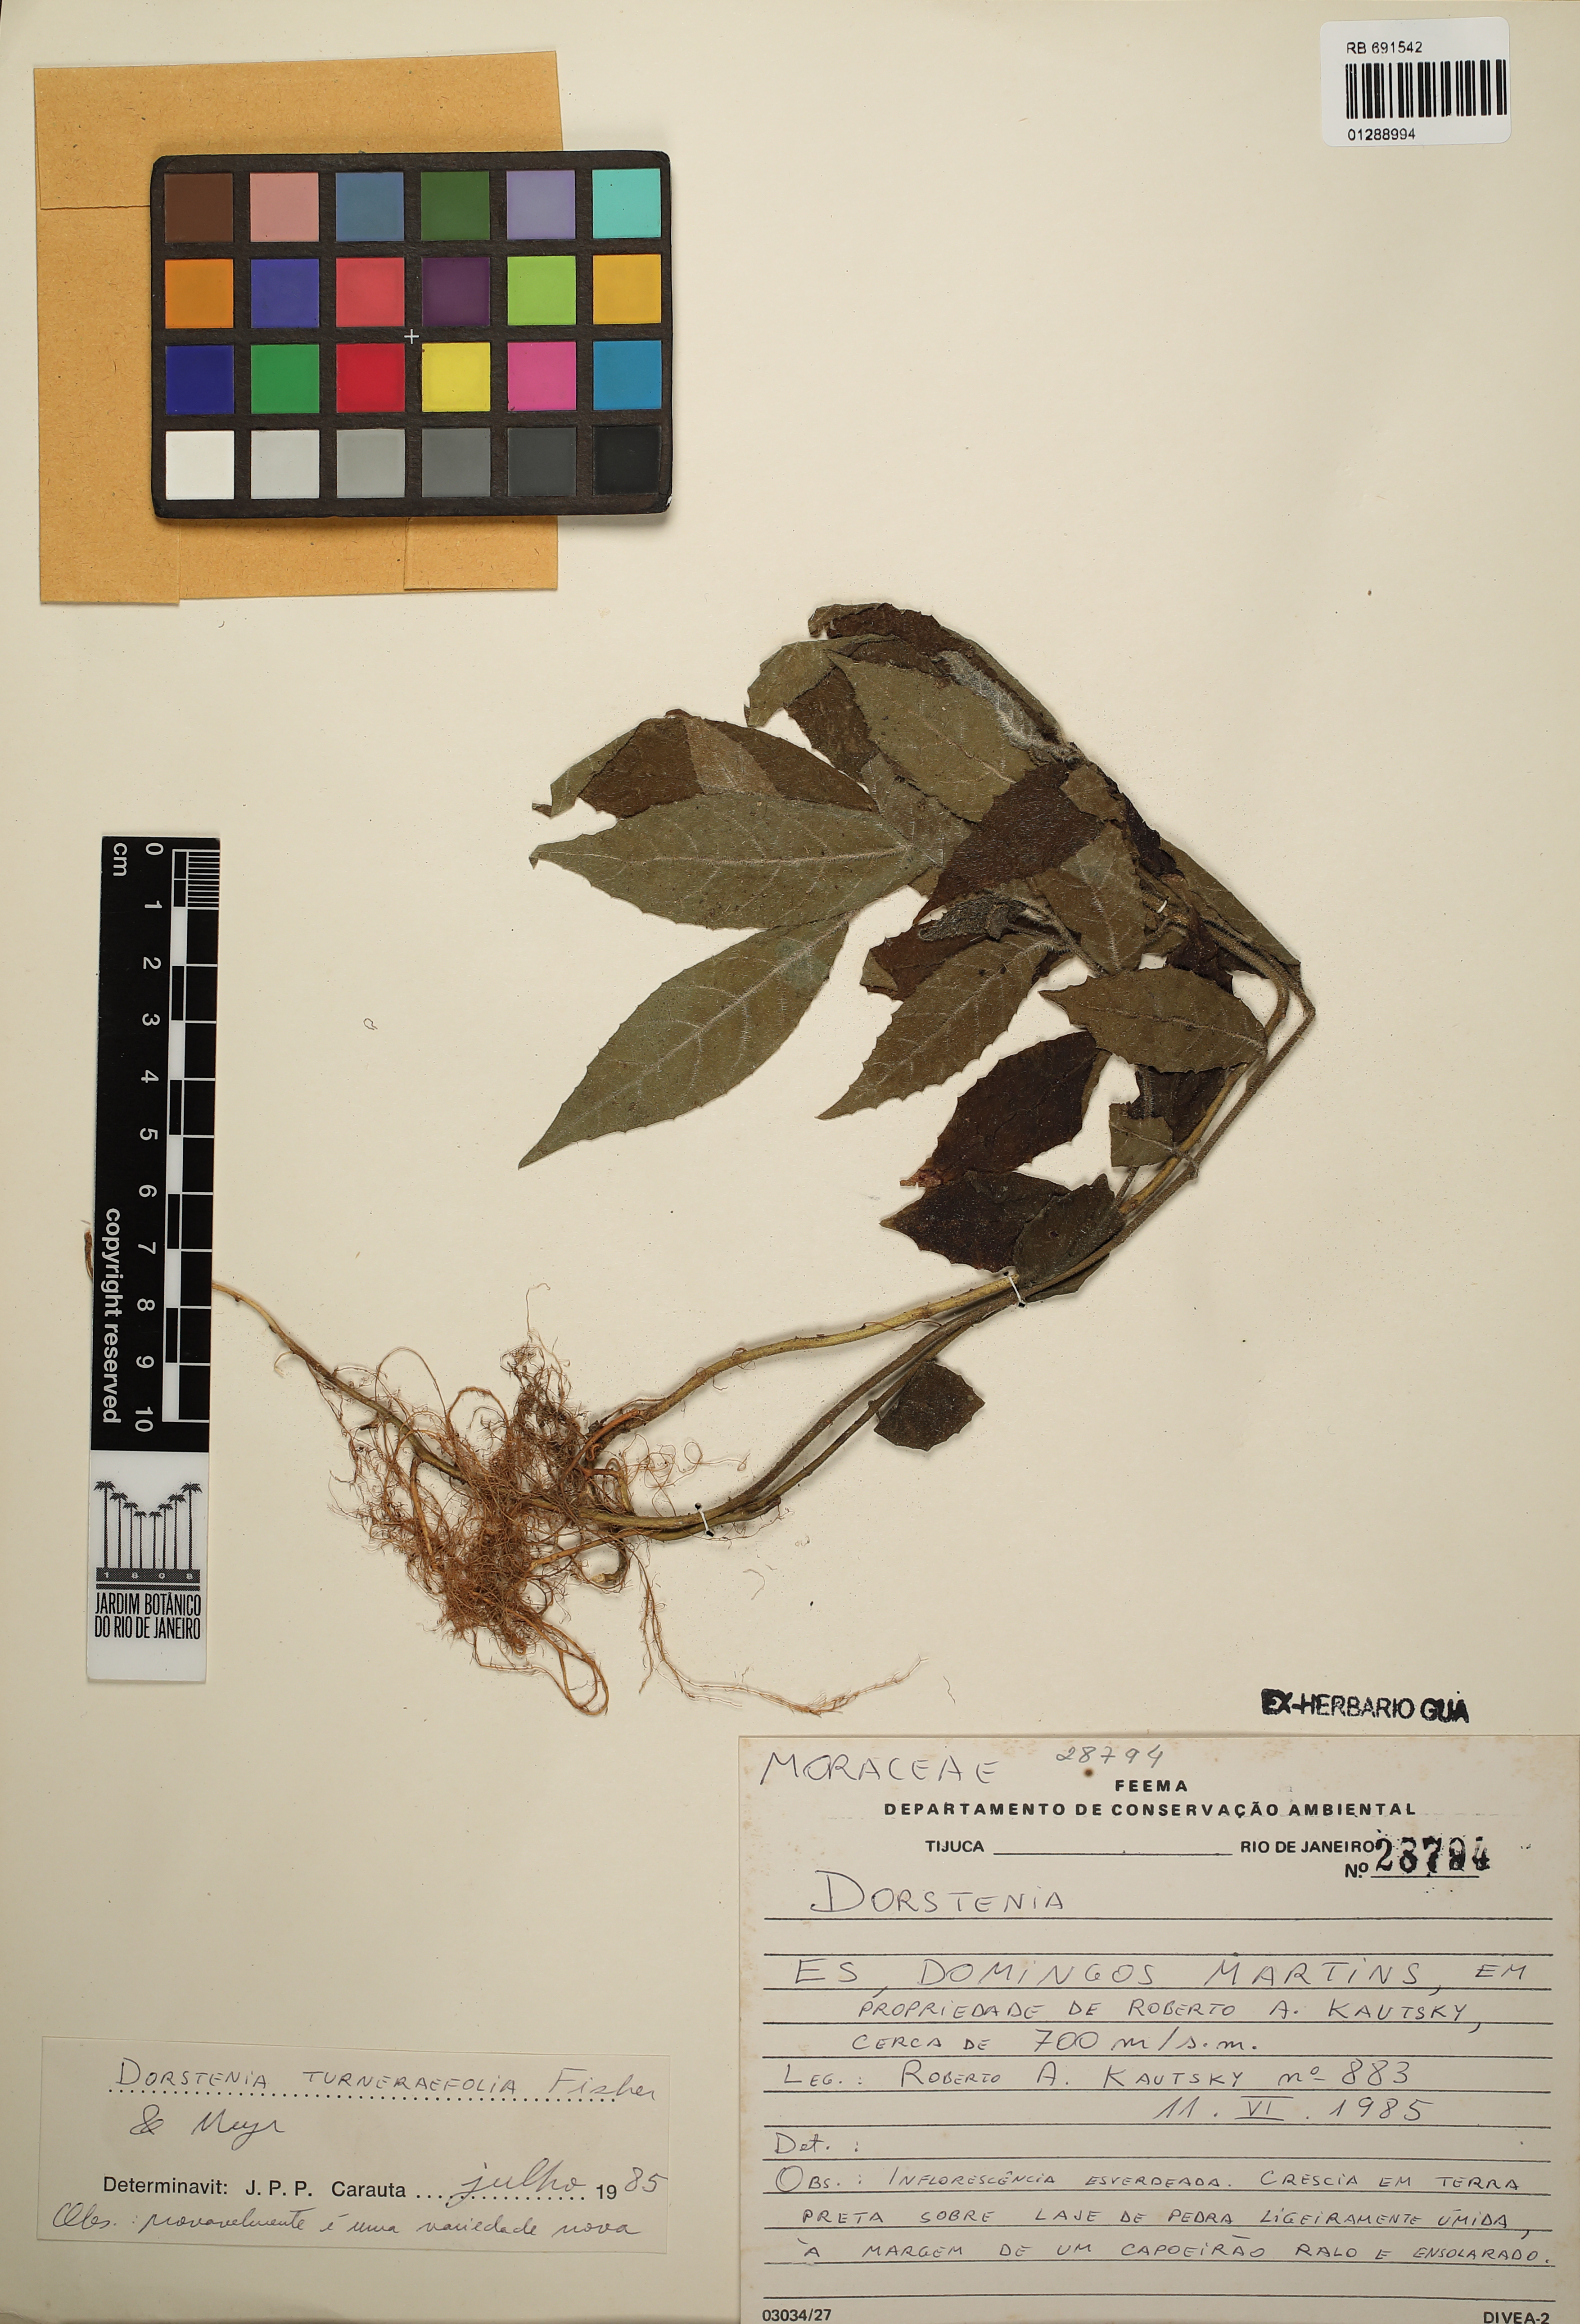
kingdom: Plantae
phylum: Tracheophyta
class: Magnoliopsida
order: Rosales
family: Moraceae
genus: Dorstenia
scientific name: Dorstenia turnerifolia
